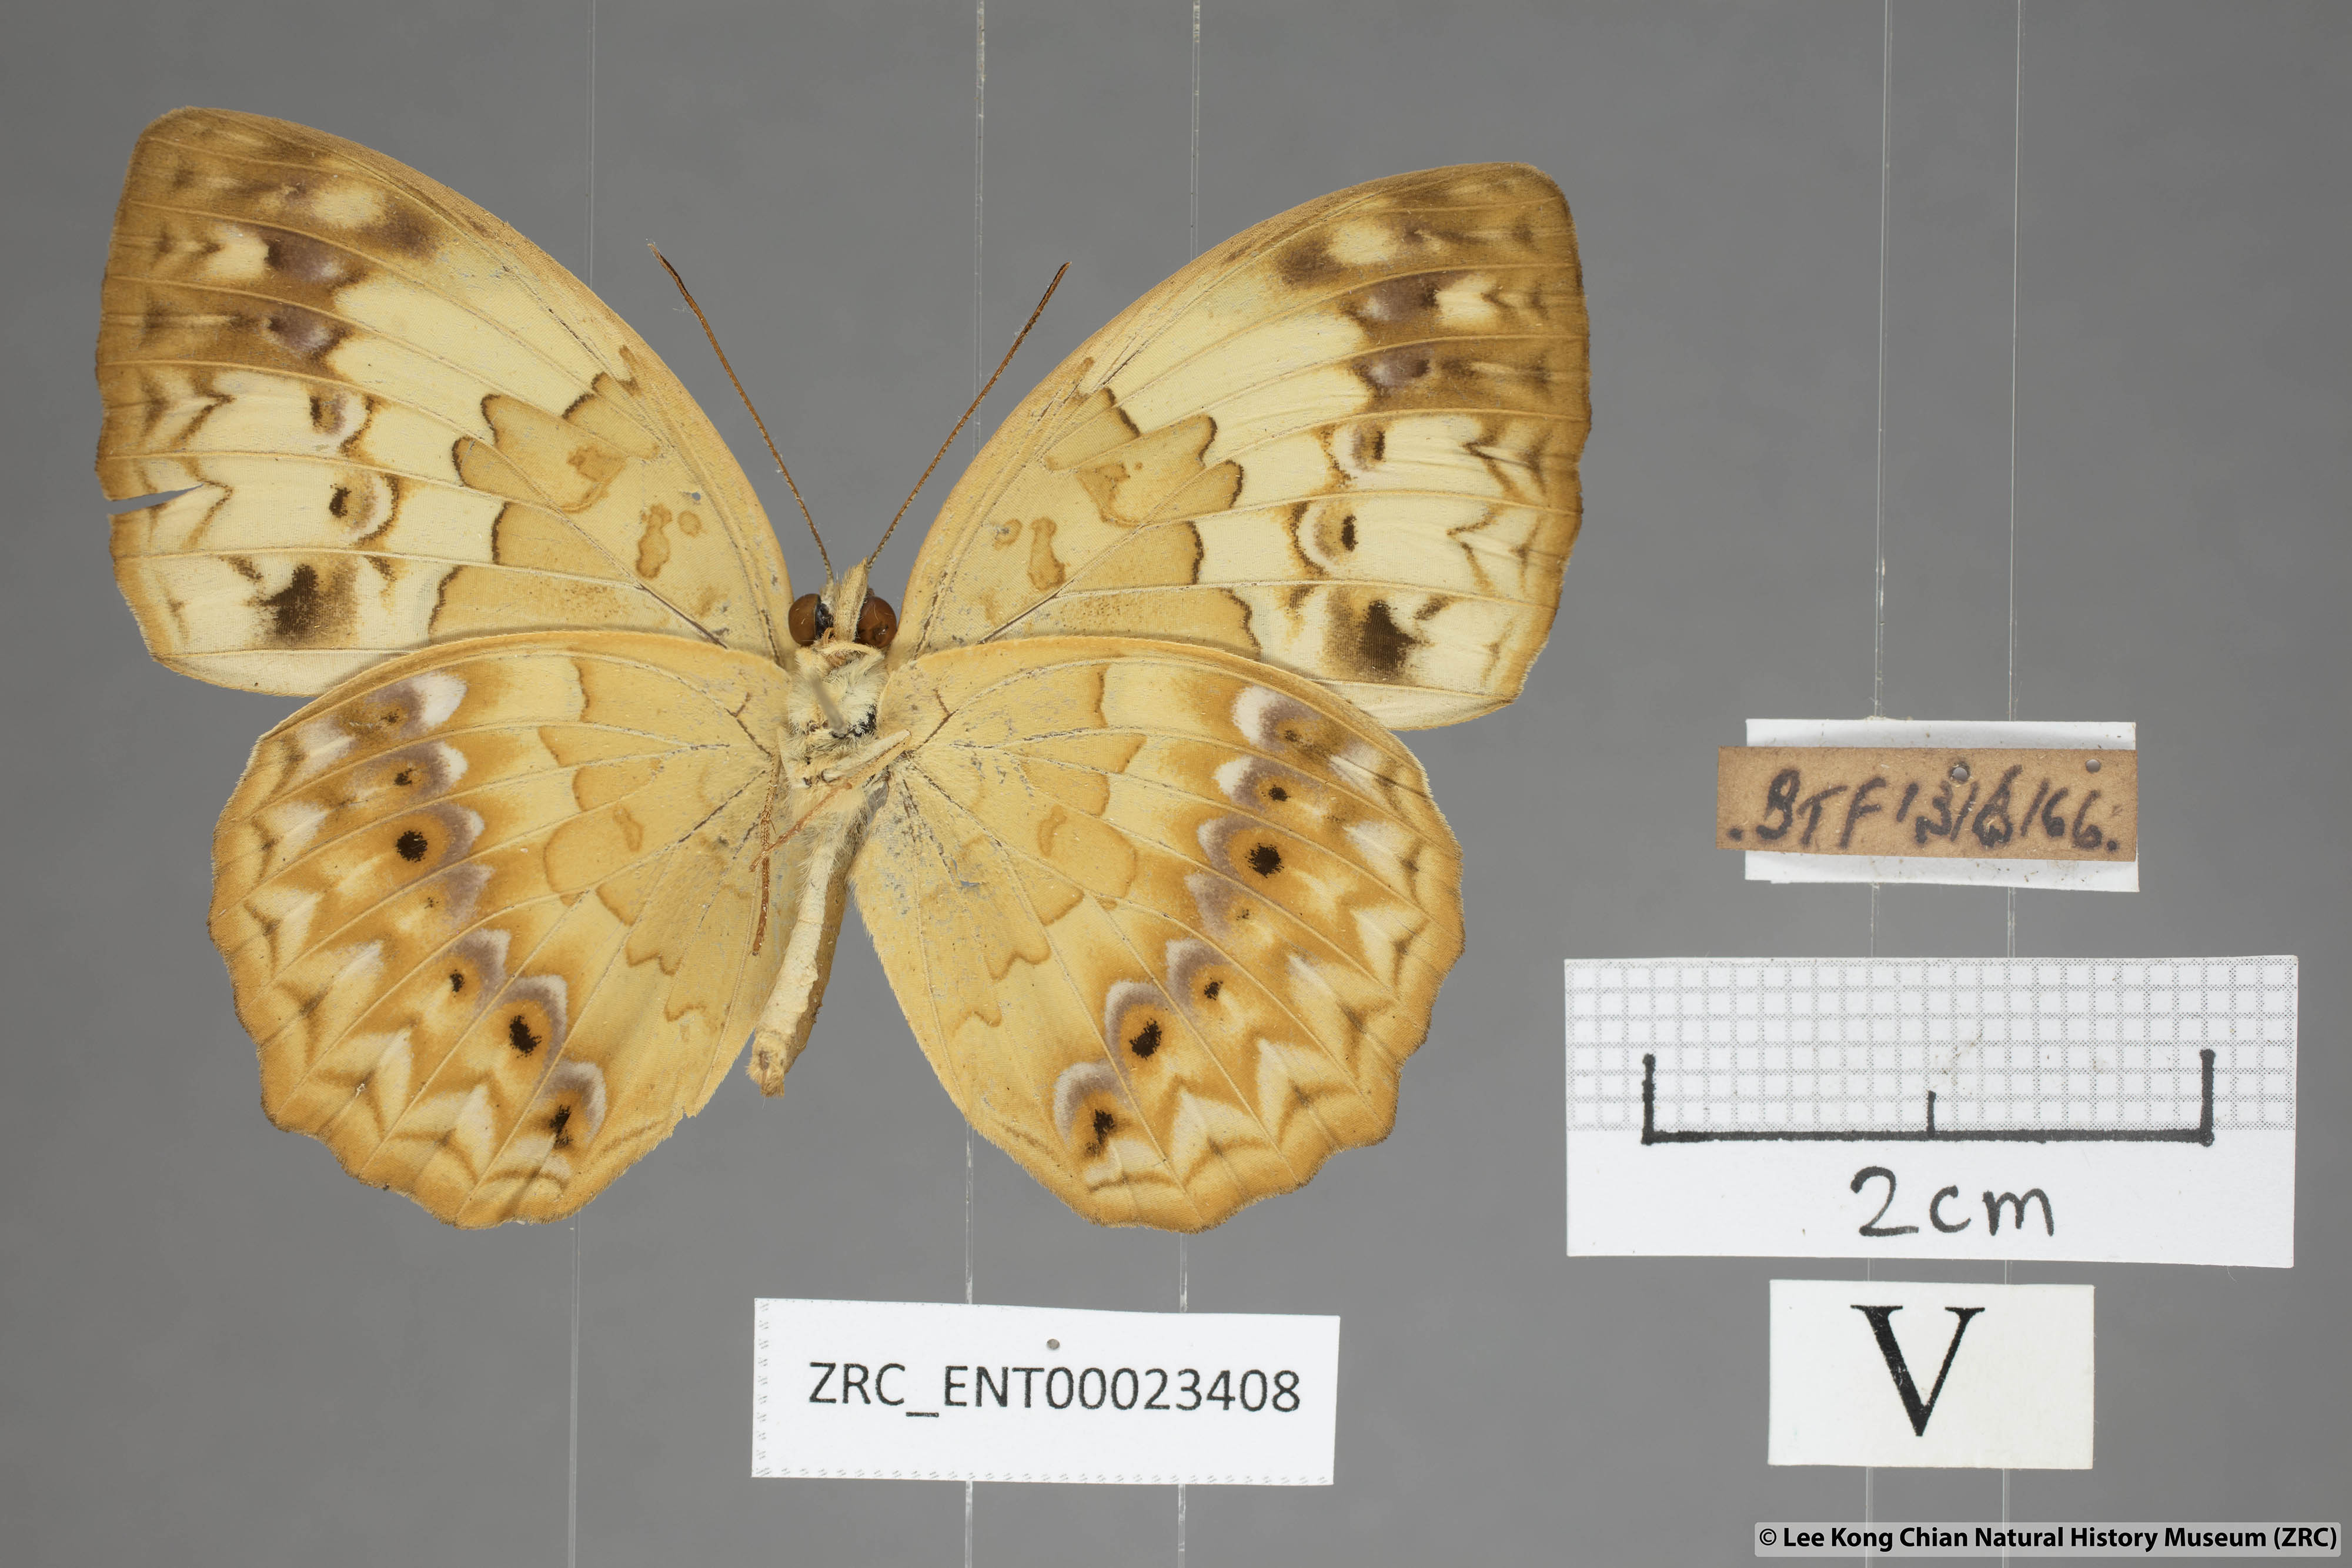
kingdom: Animalia
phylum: Arthropoda
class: Insecta
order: Lepidoptera
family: Nymphalidae
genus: Cupha
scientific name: Cupha erymanthis
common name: Rustic
